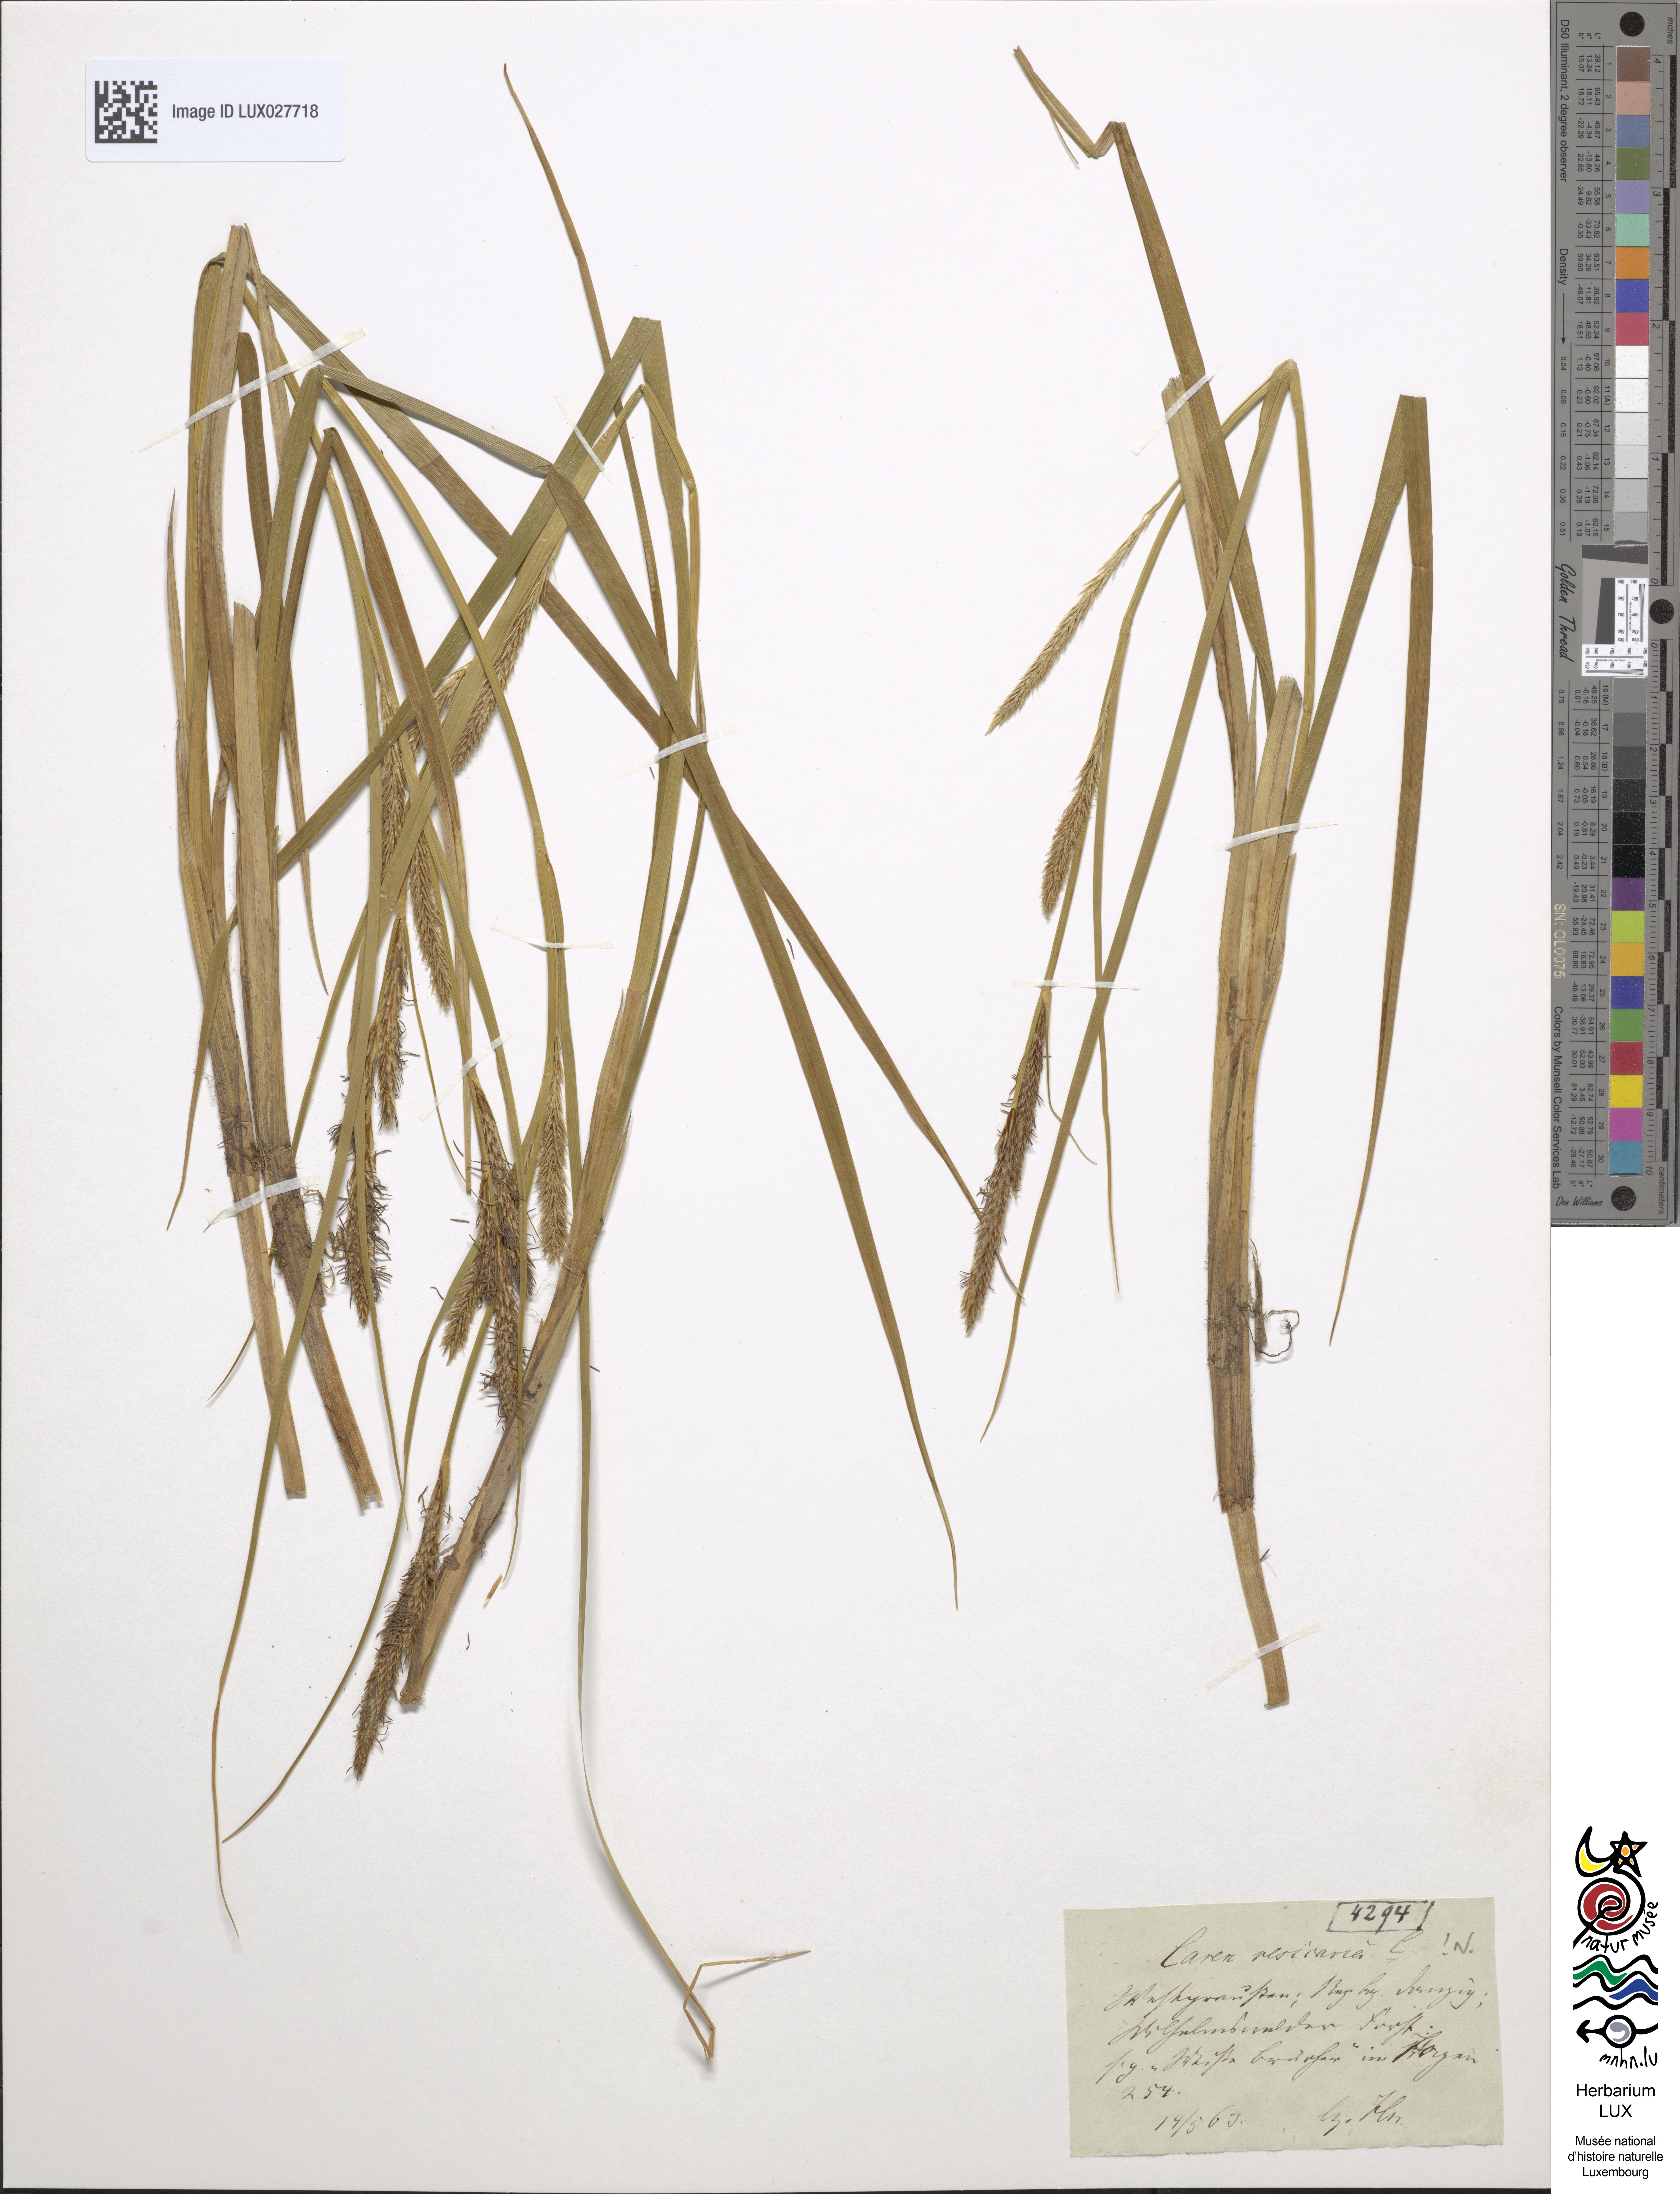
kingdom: Plantae
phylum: Tracheophyta
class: Liliopsida
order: Poales
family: Cyperaceae
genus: Carex
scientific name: Carex vesicaria
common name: Bladder-sedge
